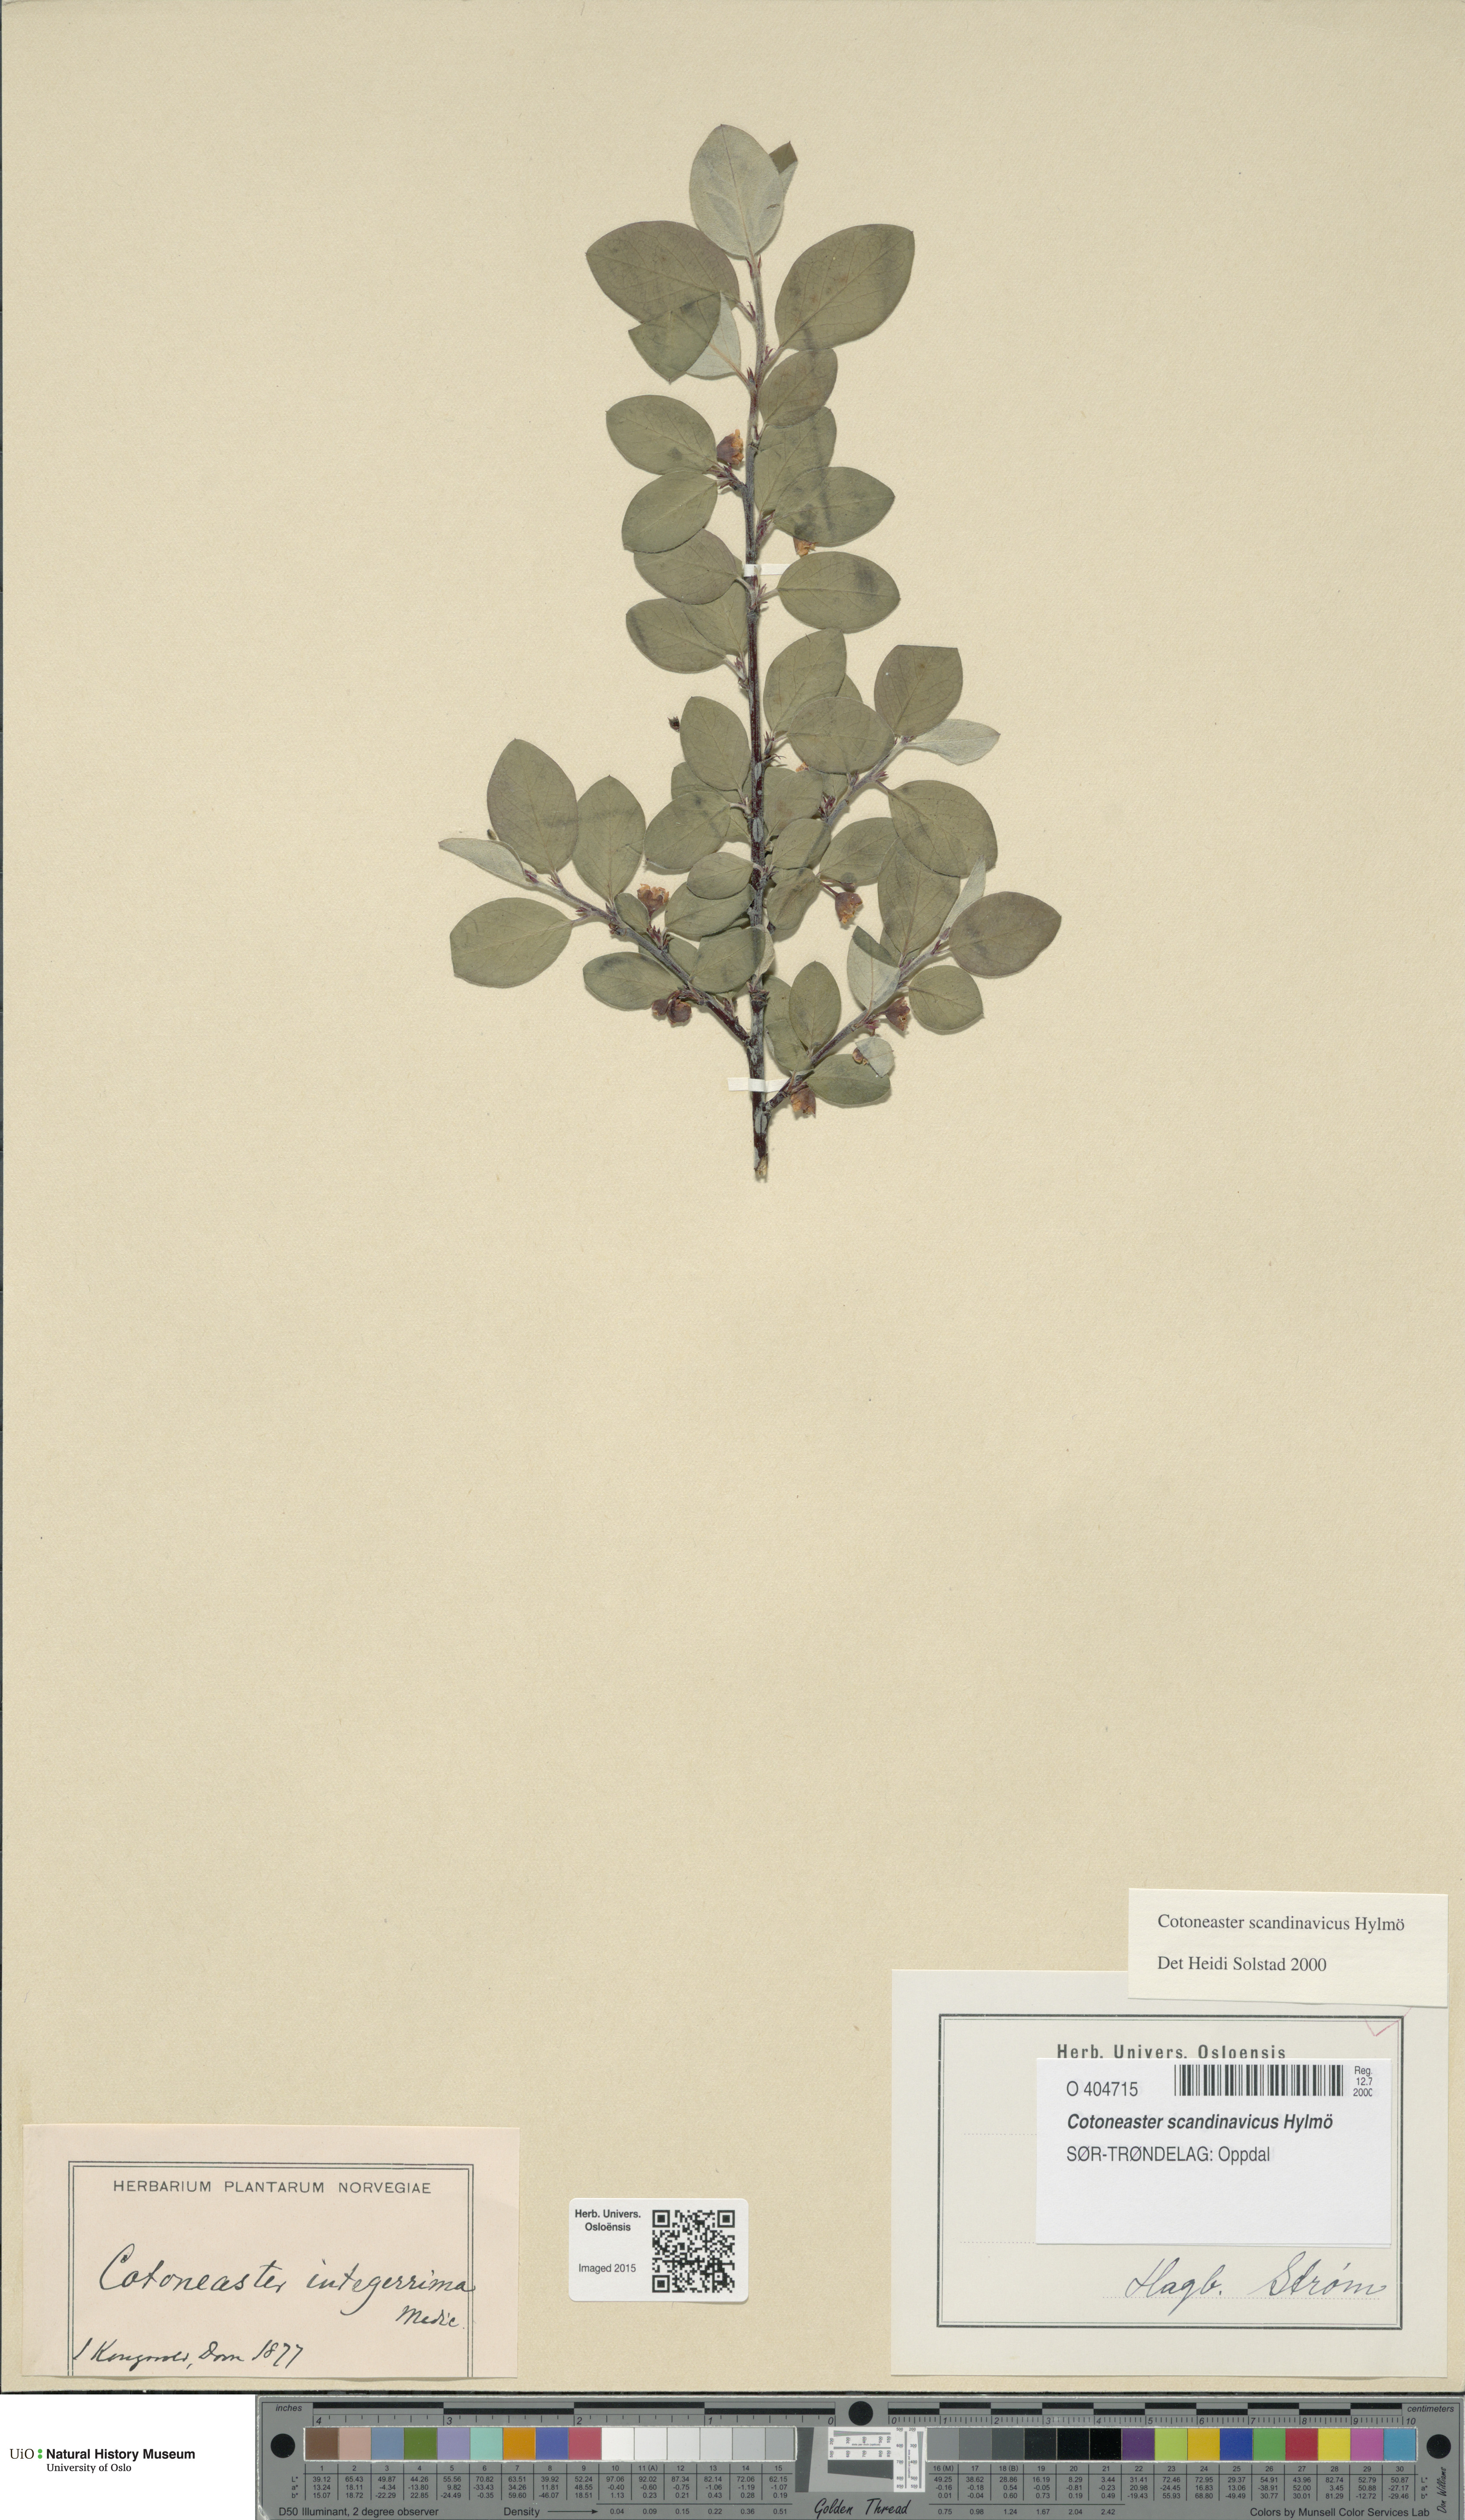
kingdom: Plantae
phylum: Tracheophyta
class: Magnoliopsida
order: Rosales
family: Rosaceae
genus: Cotoneaster
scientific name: Cotoneaster integerrimus
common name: Wild cotoneaster
